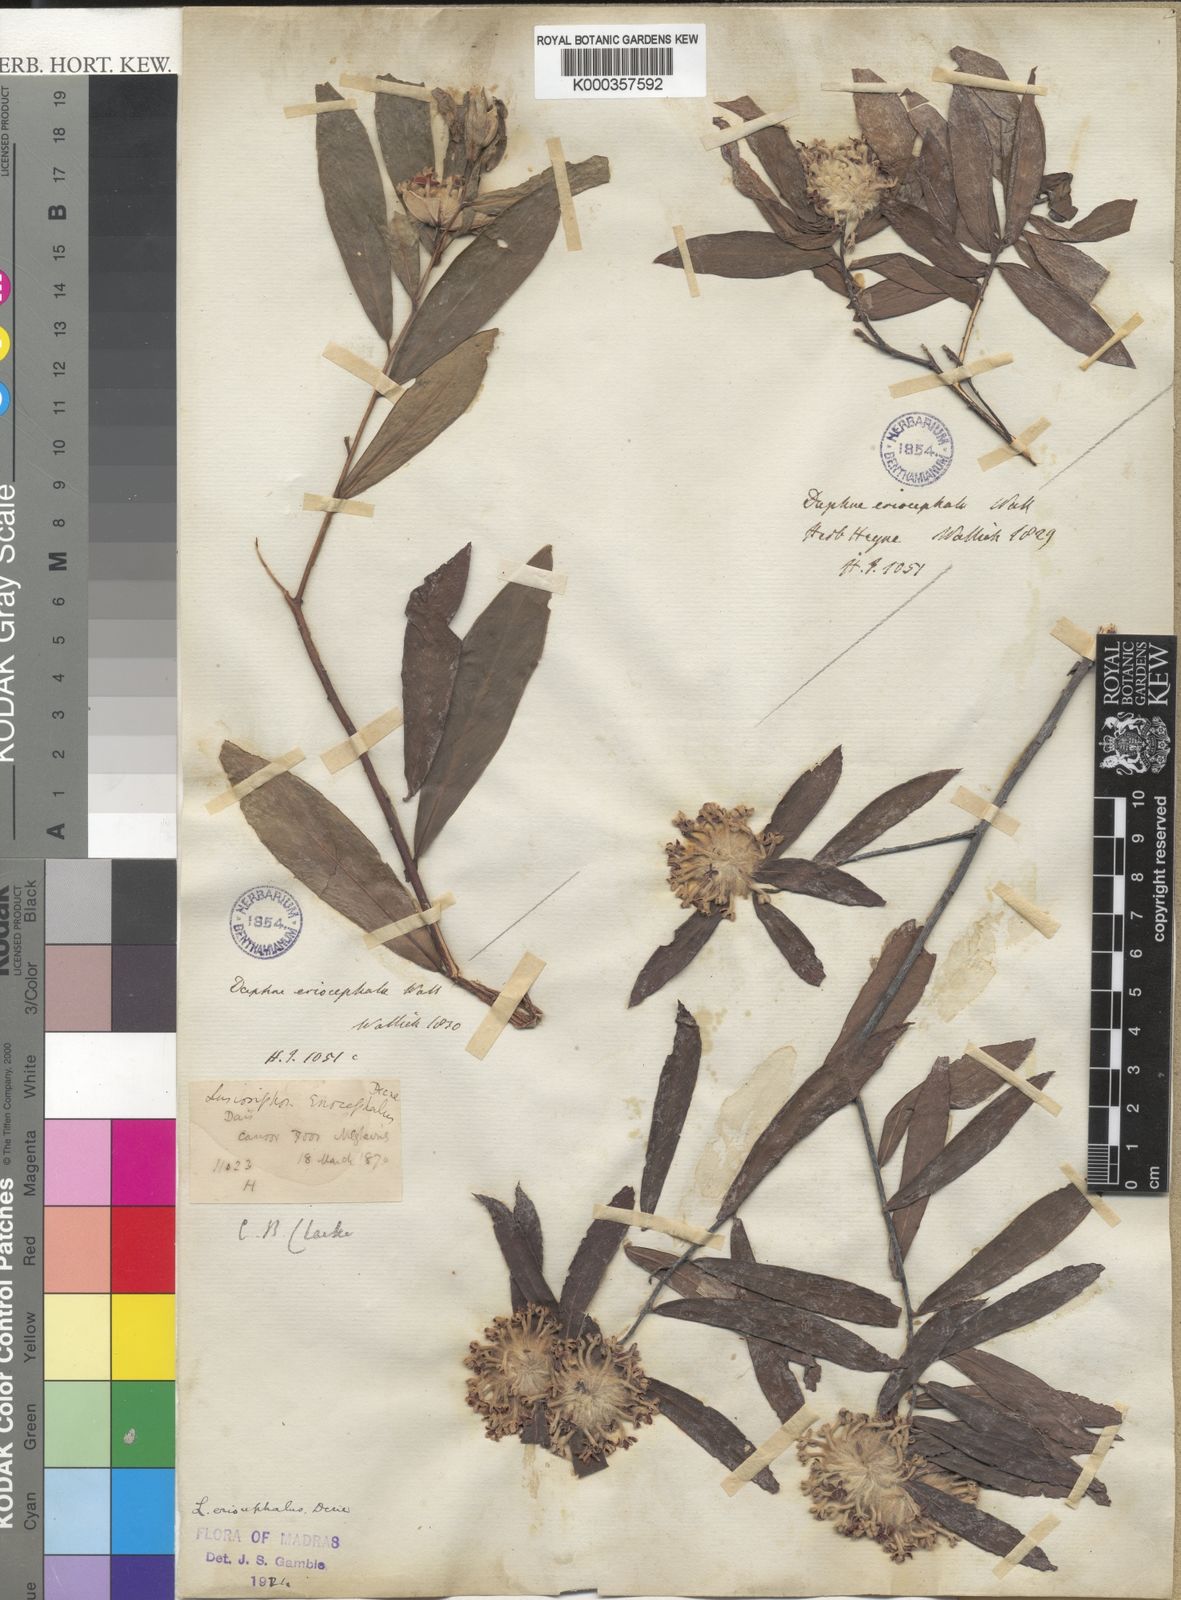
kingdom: Plantae
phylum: Tracheophyta
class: Magnoliopsida
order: Malvales
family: Thymelaeaceae
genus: Gnidia
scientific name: Gnidia glauca
